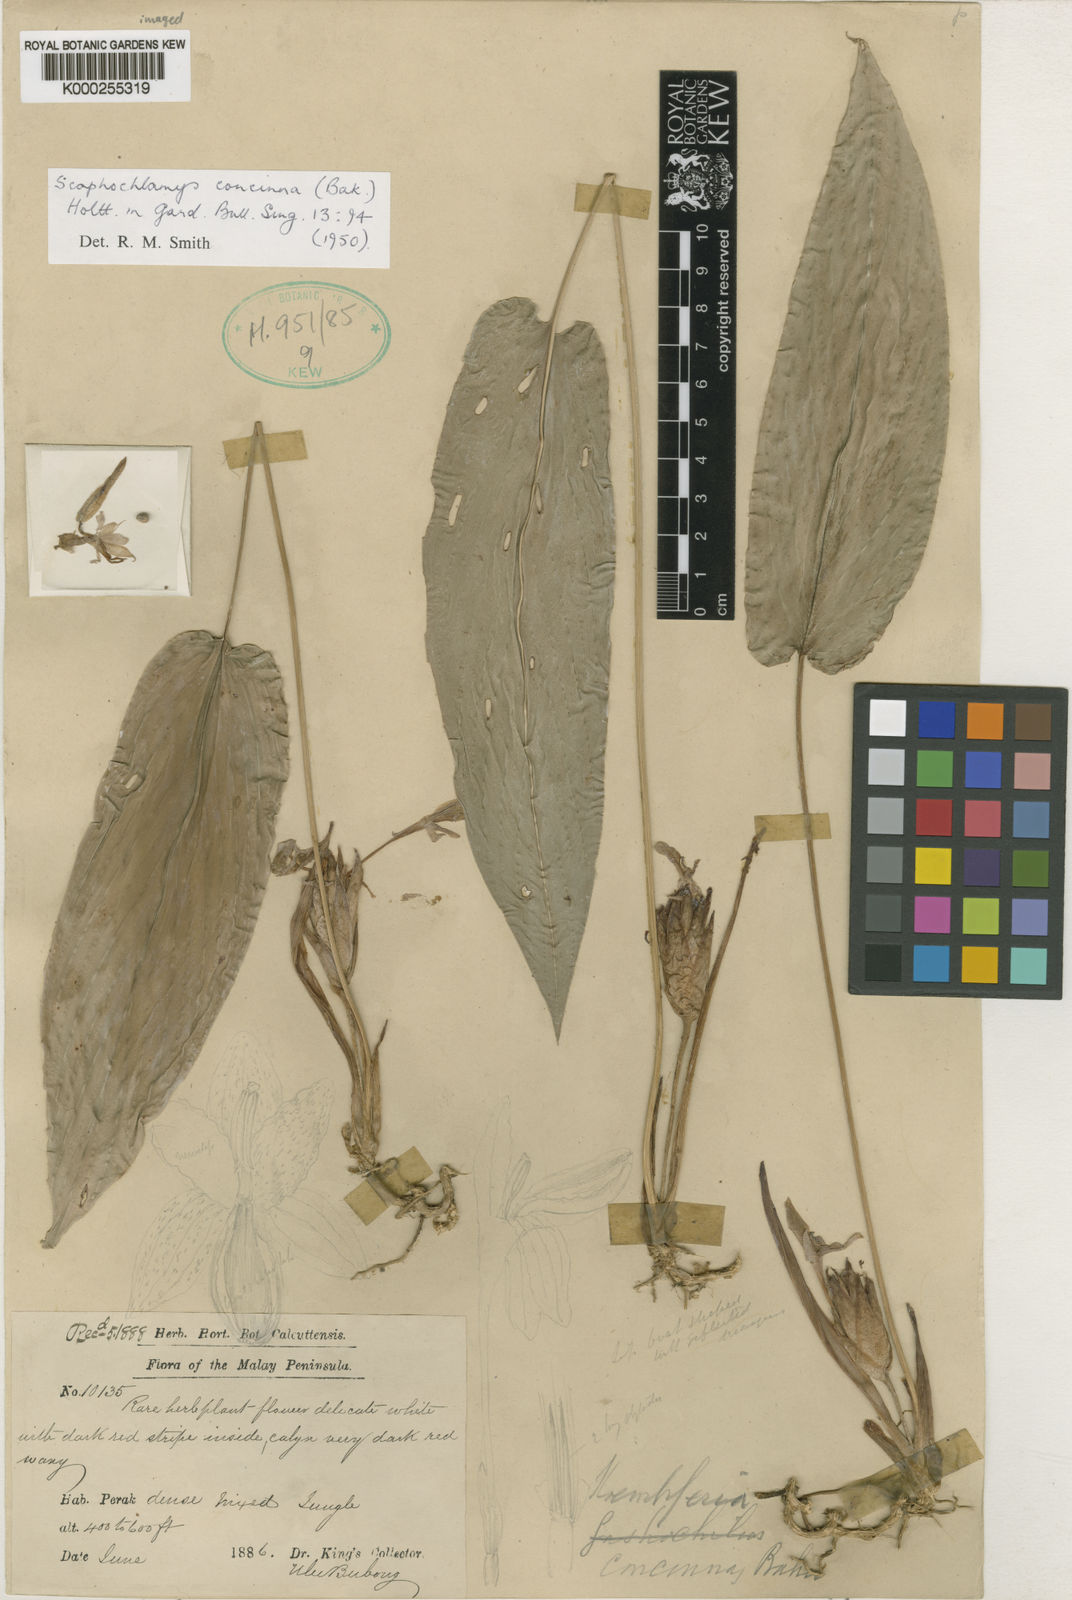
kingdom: Plantae
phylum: Tracheophyta
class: Liliopsida
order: Zingiberales
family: Zingiberaceae
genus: Scaphochlamys
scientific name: Scaphochlamys concinna
